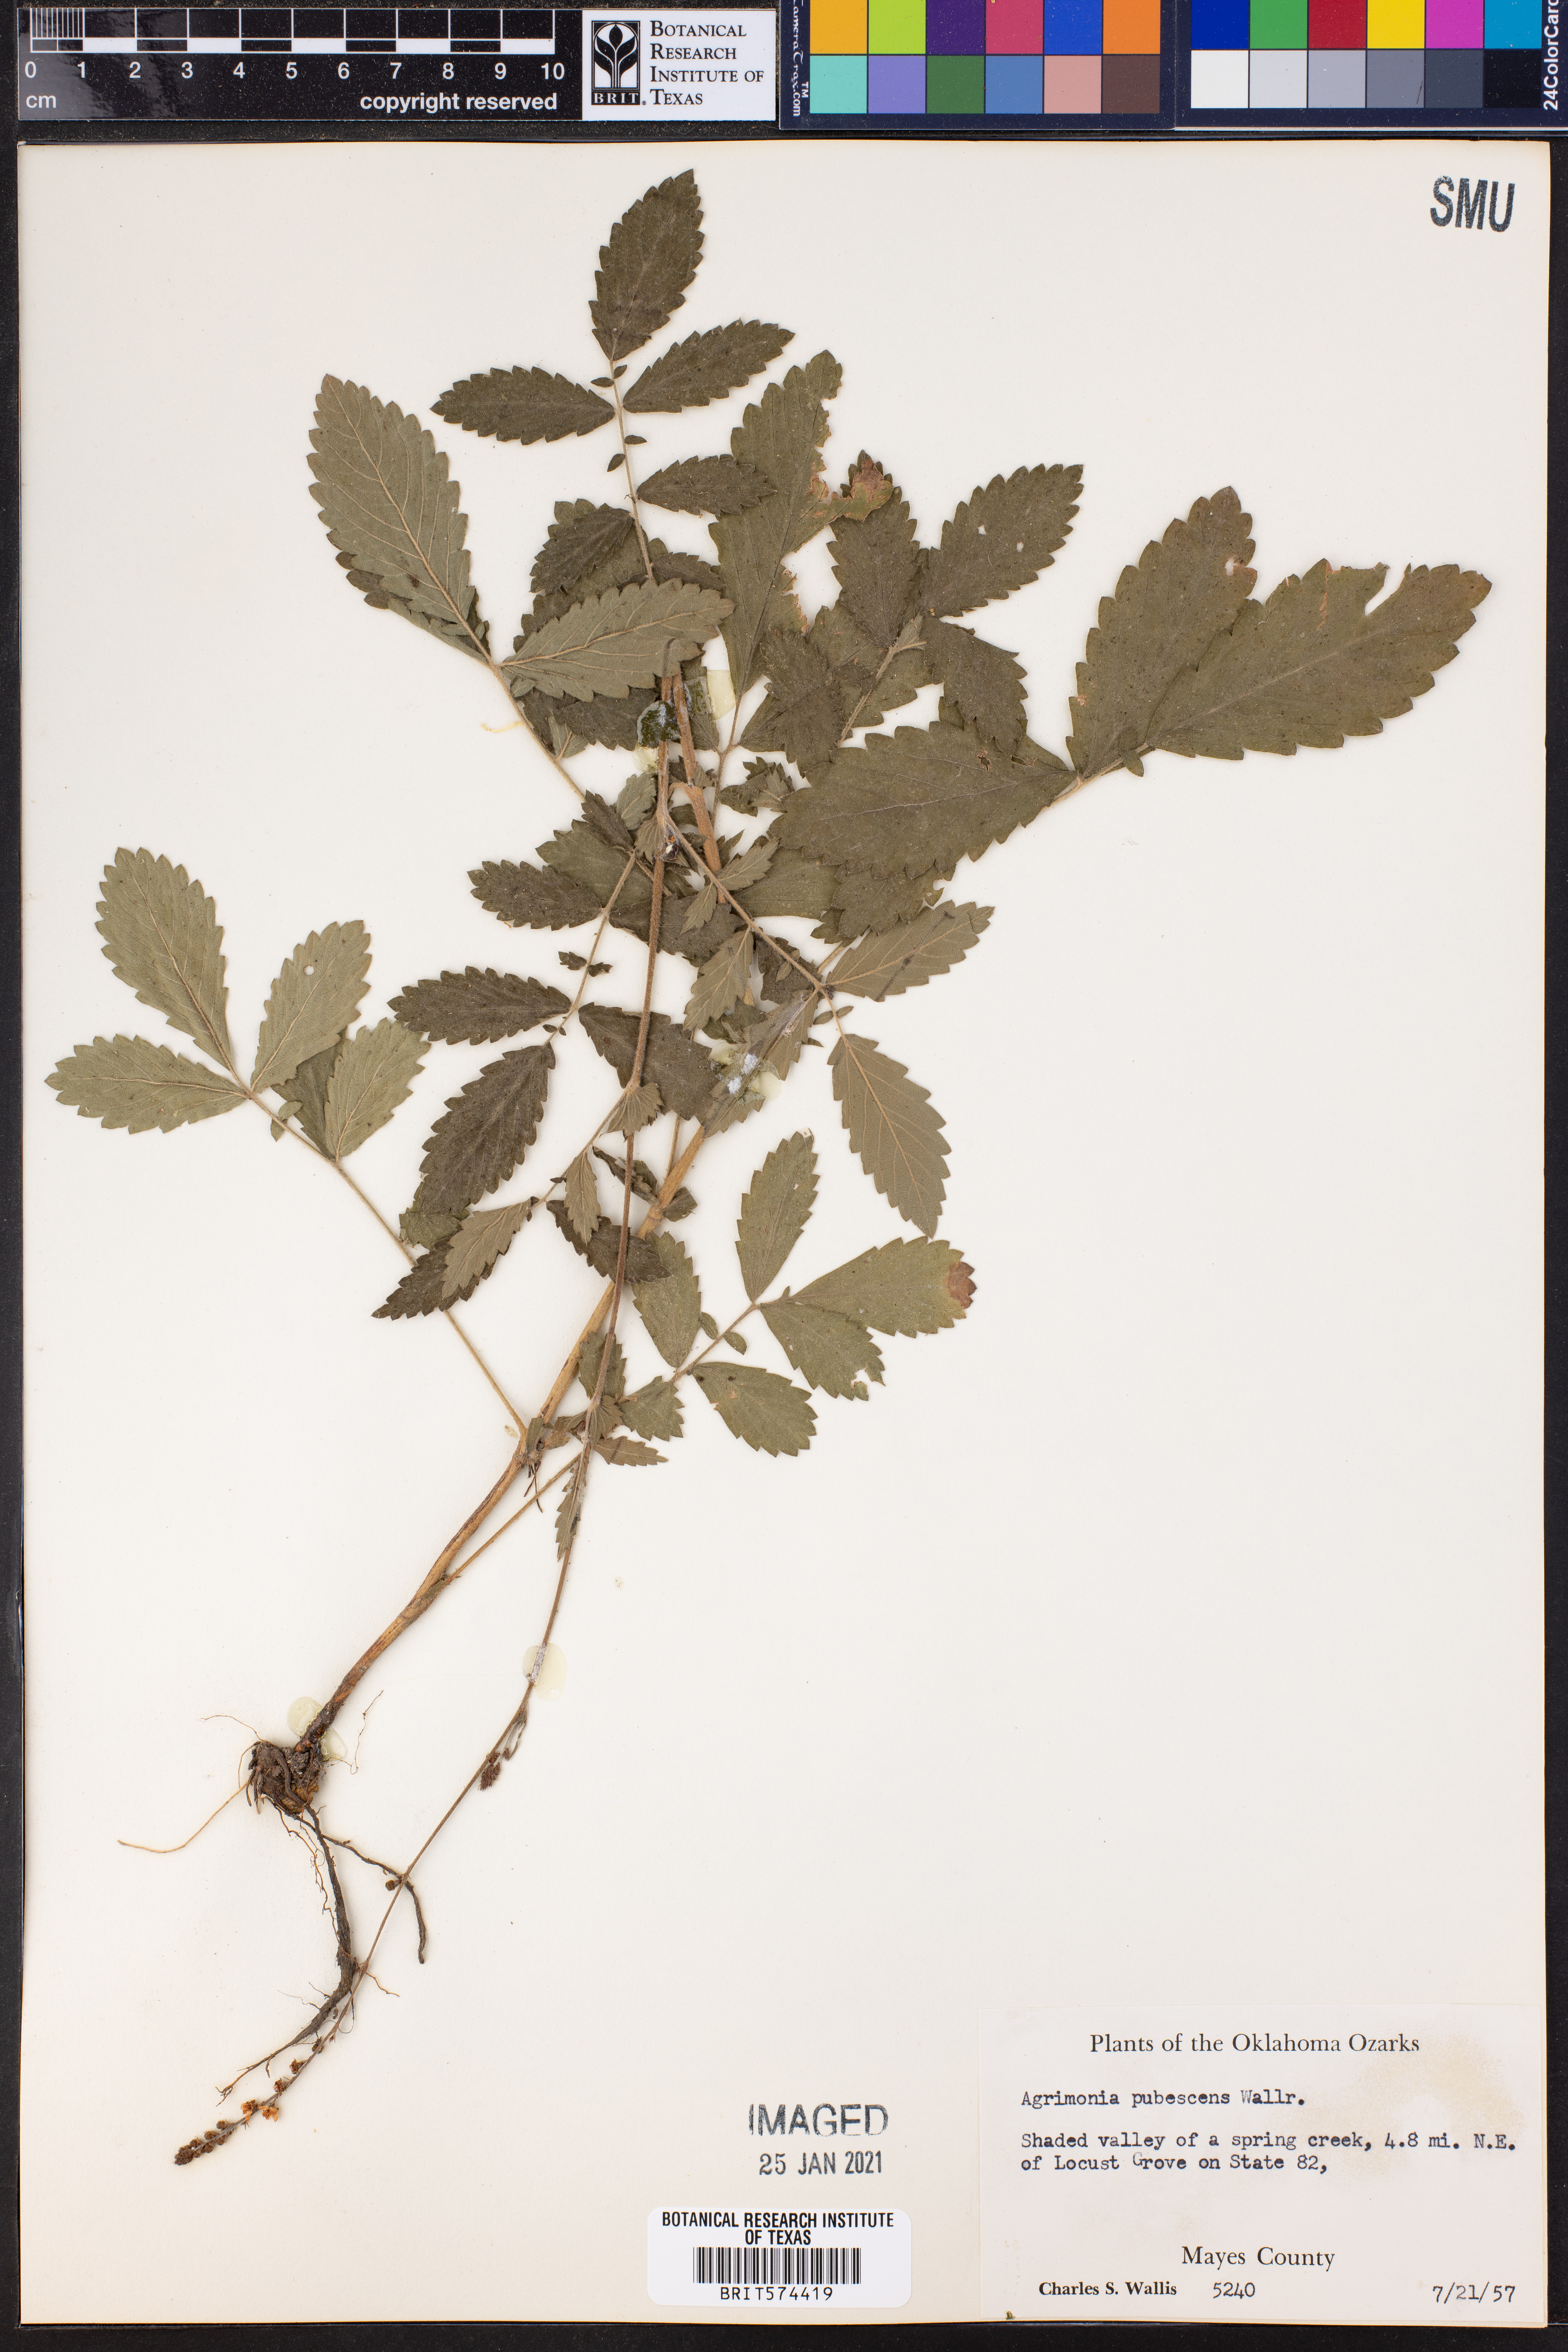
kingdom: Plantae
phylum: Tracheophyta
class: Magnoliopsida
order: Rosales
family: Rosaceae
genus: Agrimonia
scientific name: Agrimonia pubescens
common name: Downy agrimony
